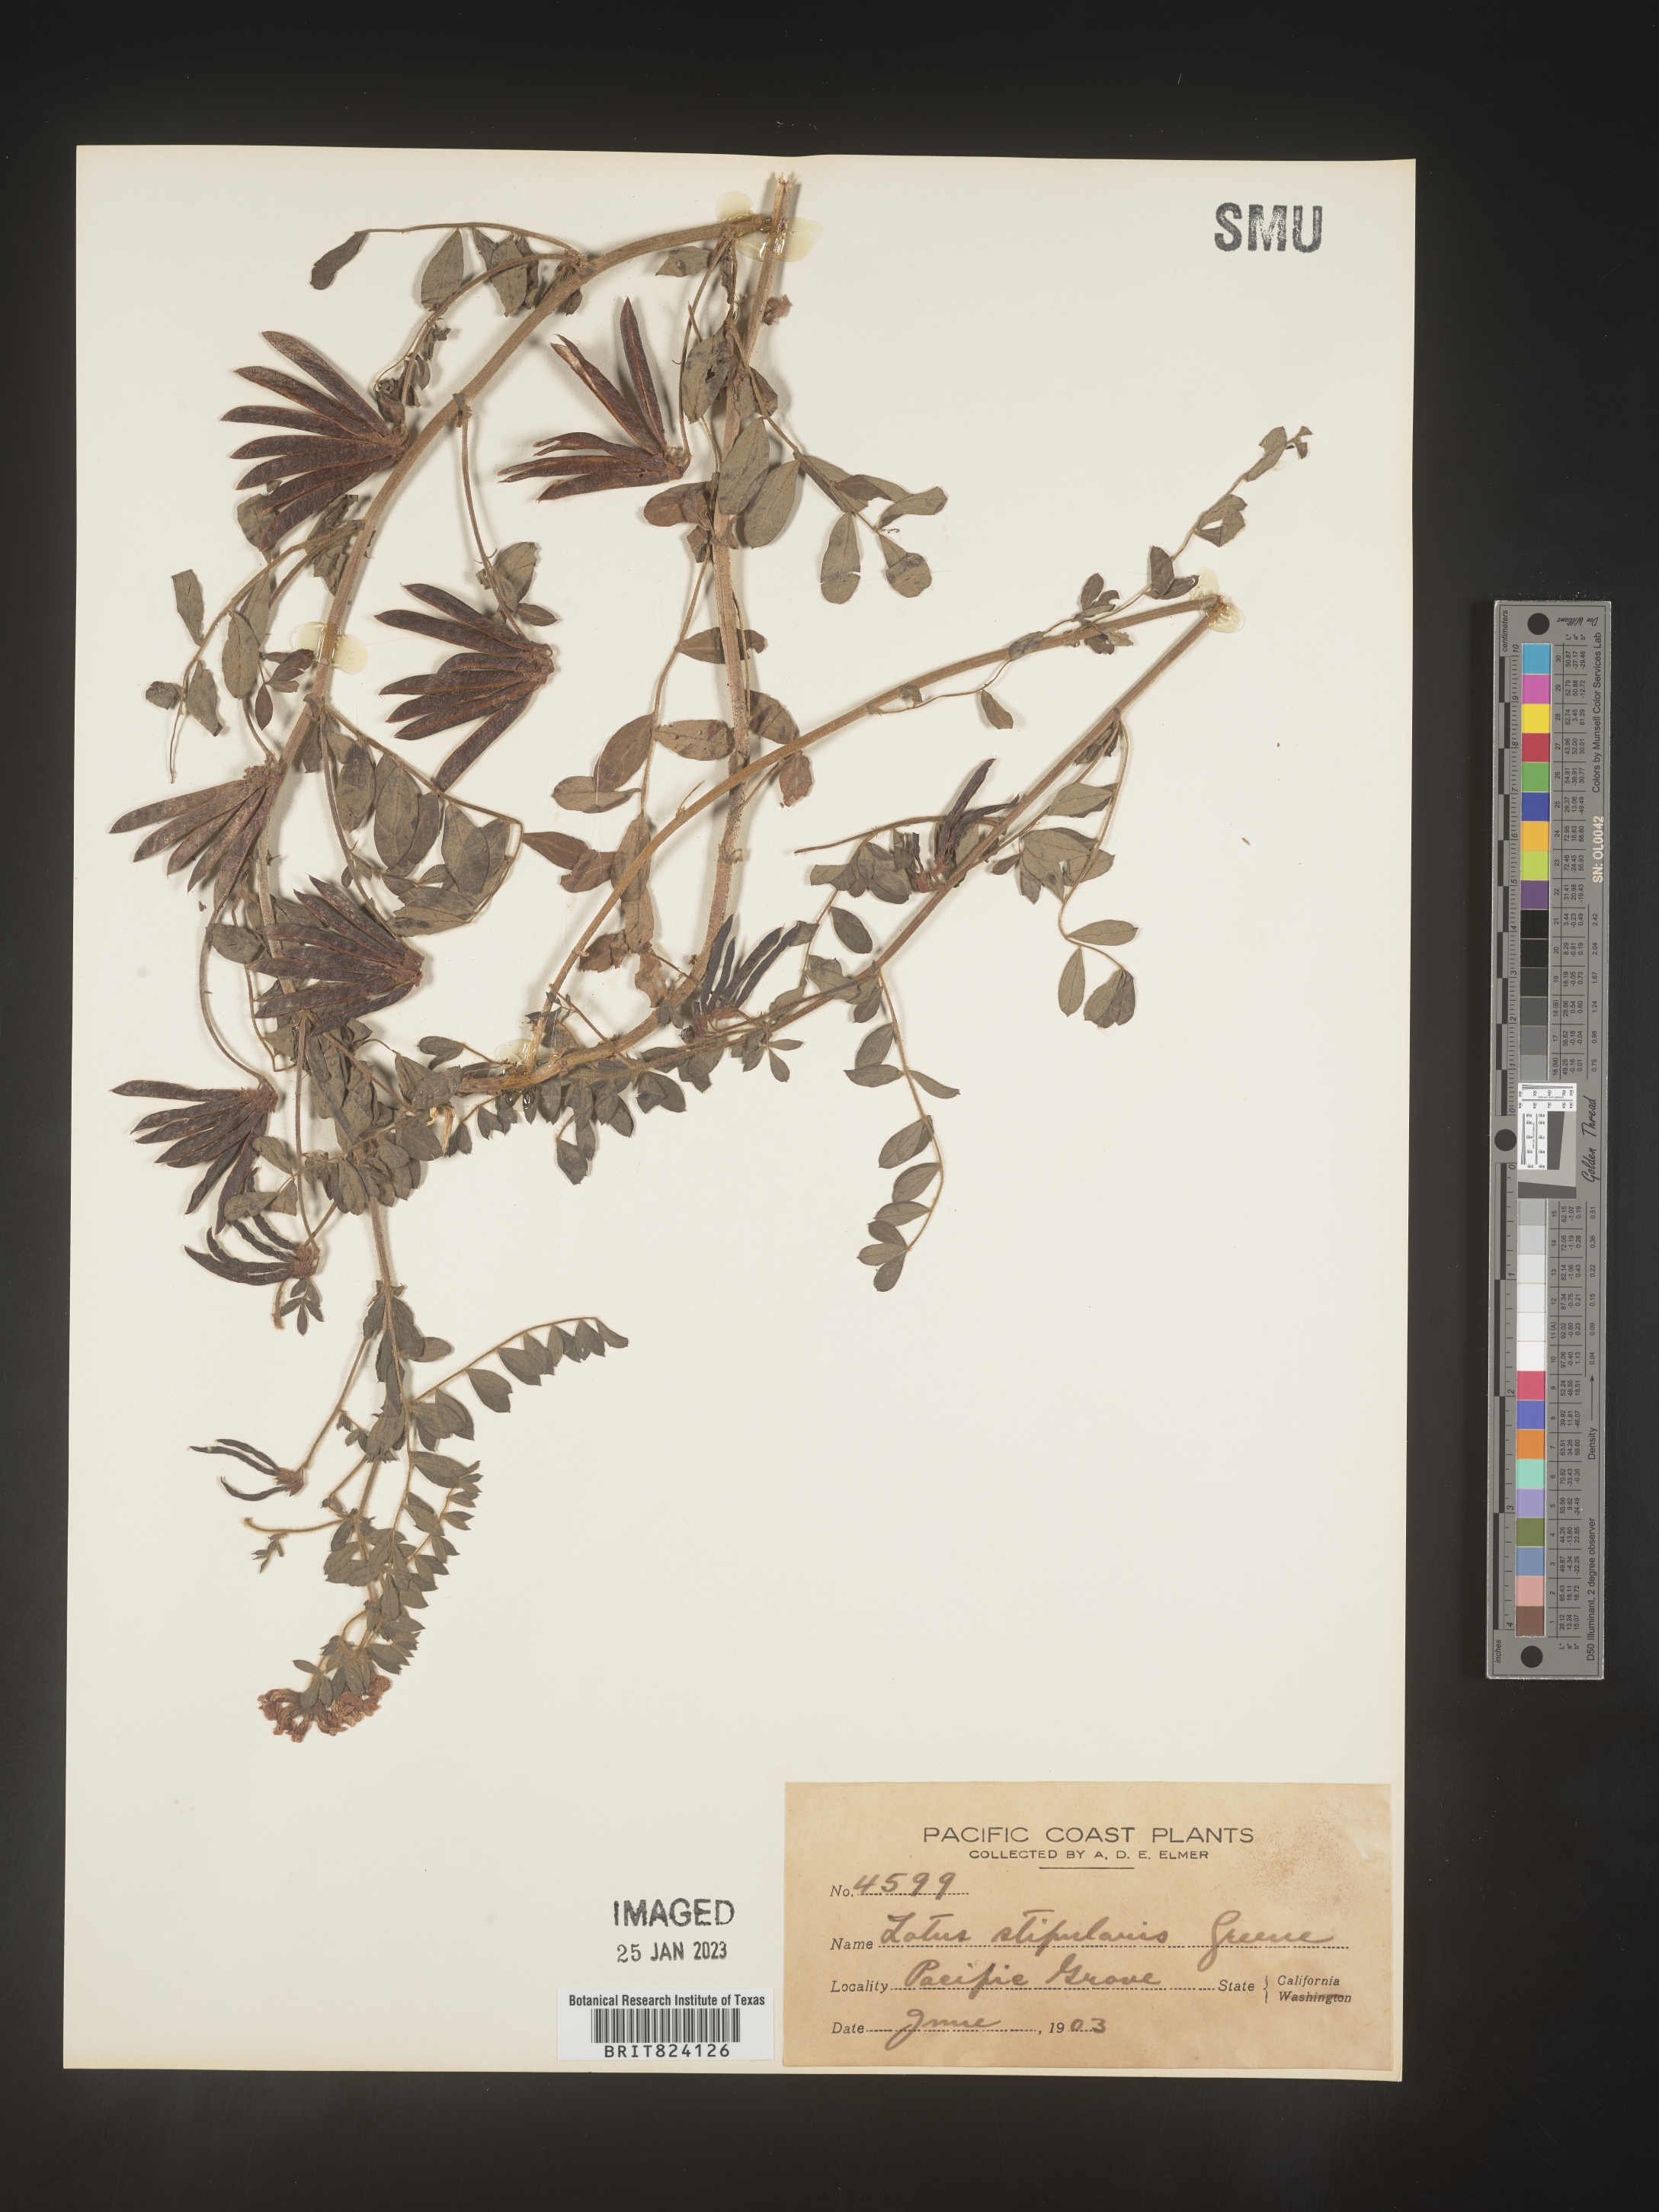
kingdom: Plantae
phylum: Tracheophyta
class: Magnoliopsida
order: Fabales
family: Fabaceae
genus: Lotus
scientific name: Lotus
